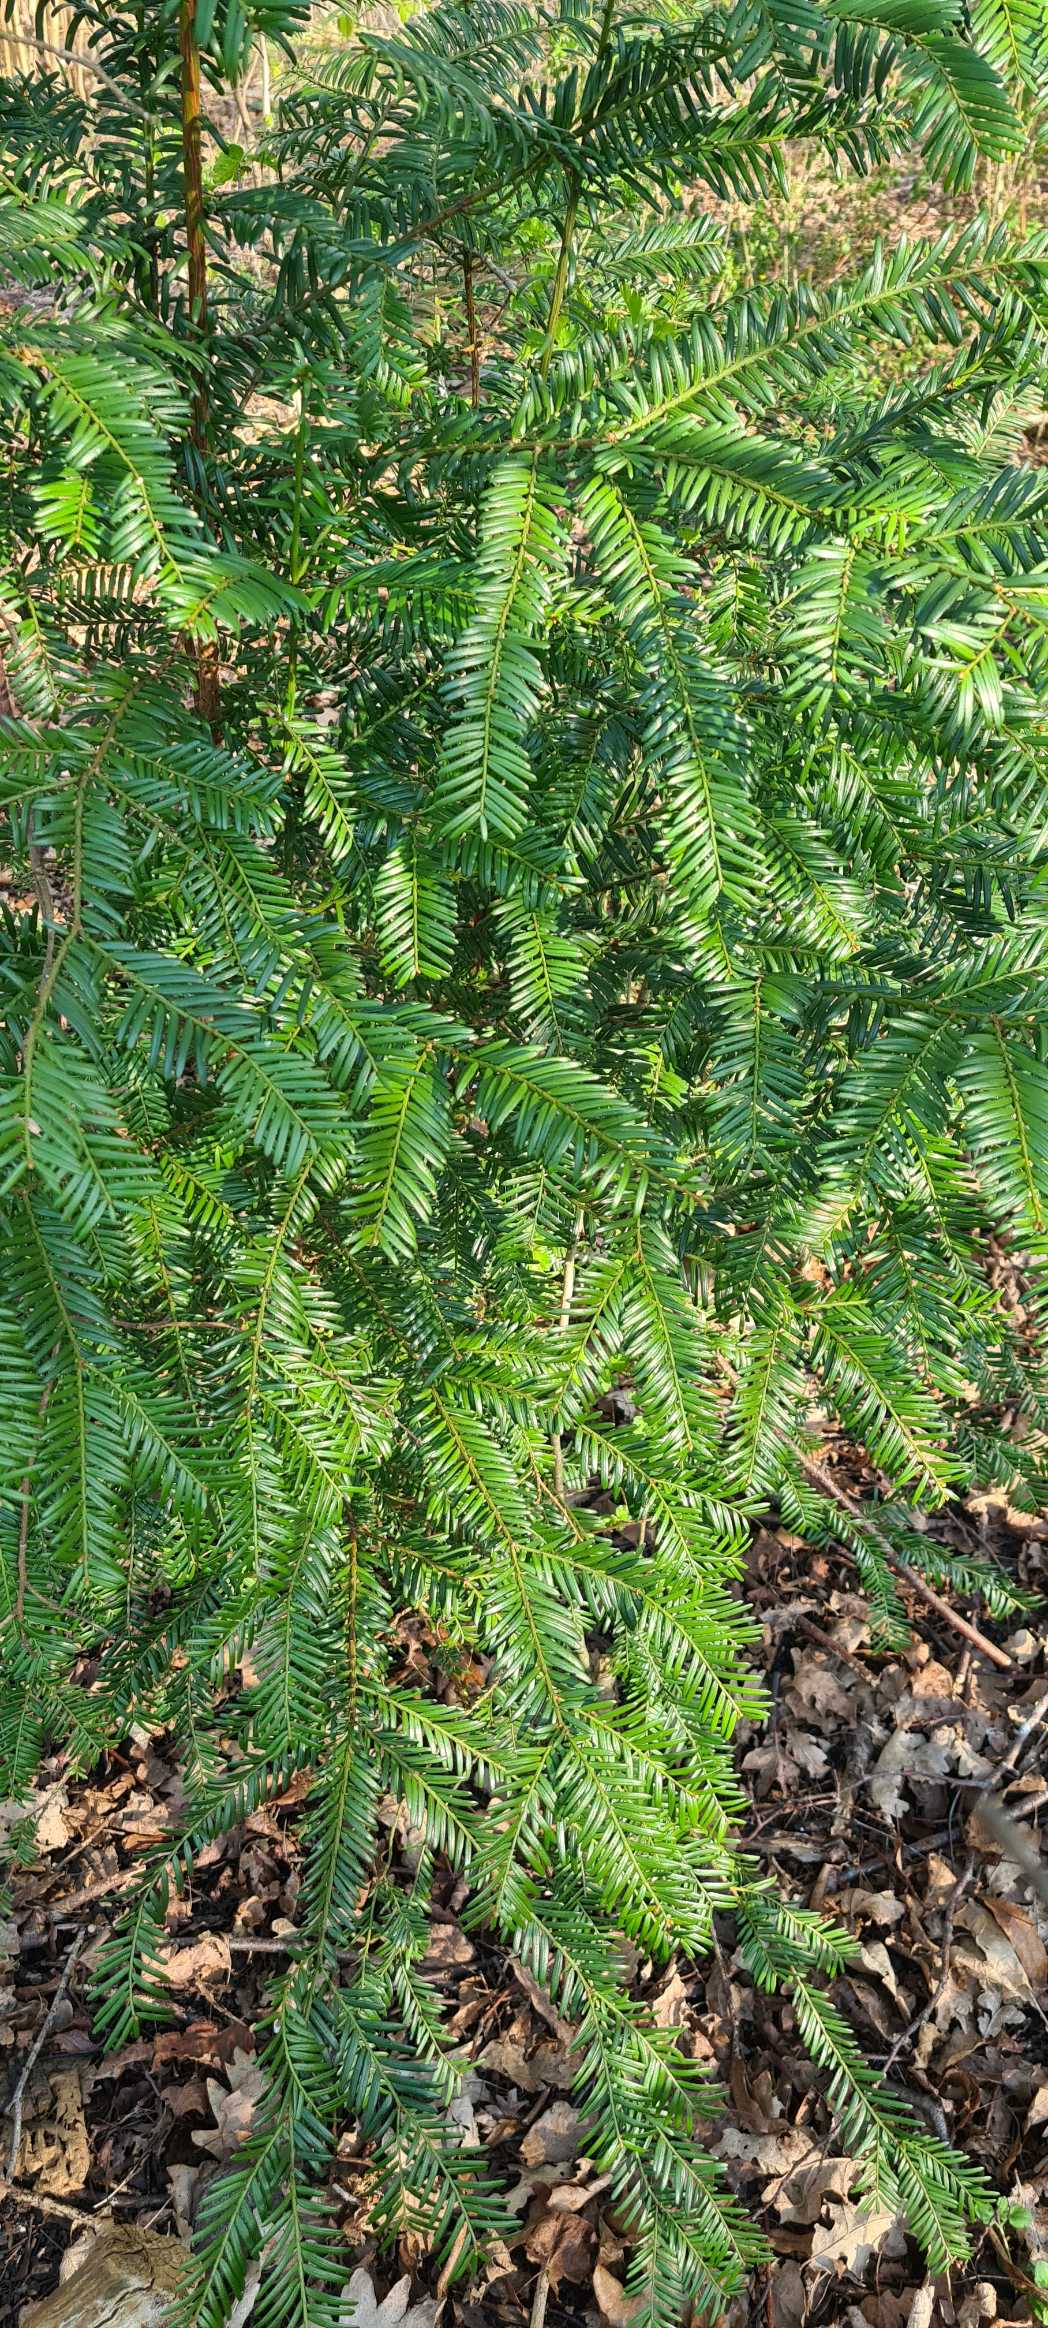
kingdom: Plantae
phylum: Tracheophyta
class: Pinopsida
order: Pinales
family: Taxaceae
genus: Taxus
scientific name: Taxus baccata
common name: Almindelig taks
